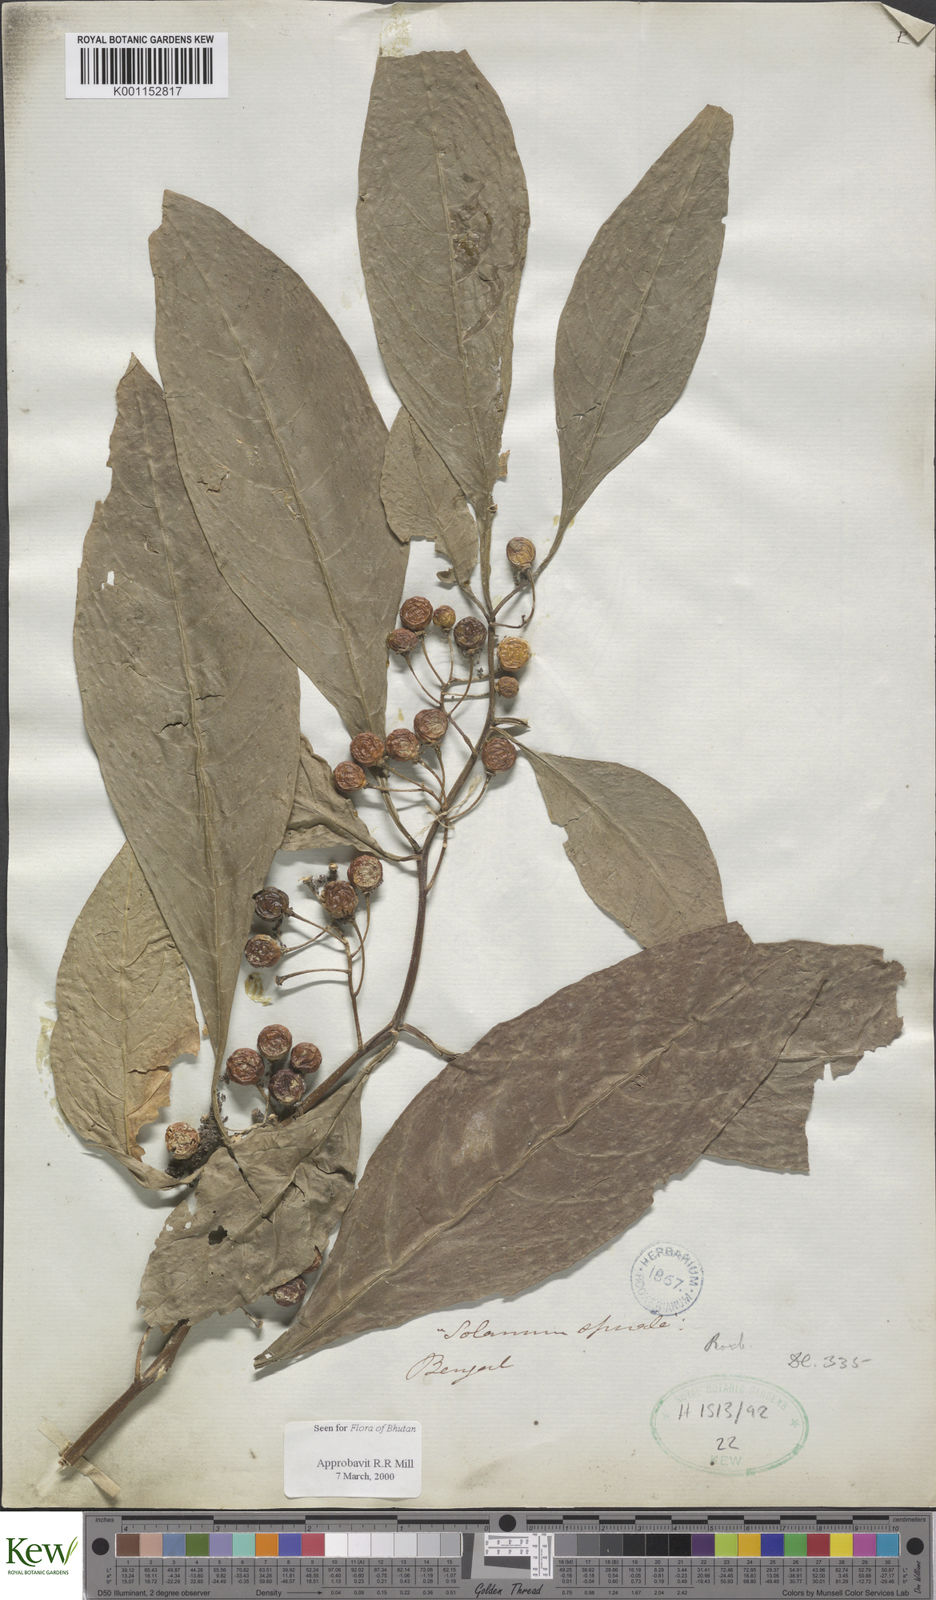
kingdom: Plantae
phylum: Tracheophyta
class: Magnoliopsida
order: Solanales
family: Solanaceae
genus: Solanum
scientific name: Solanum spirale
